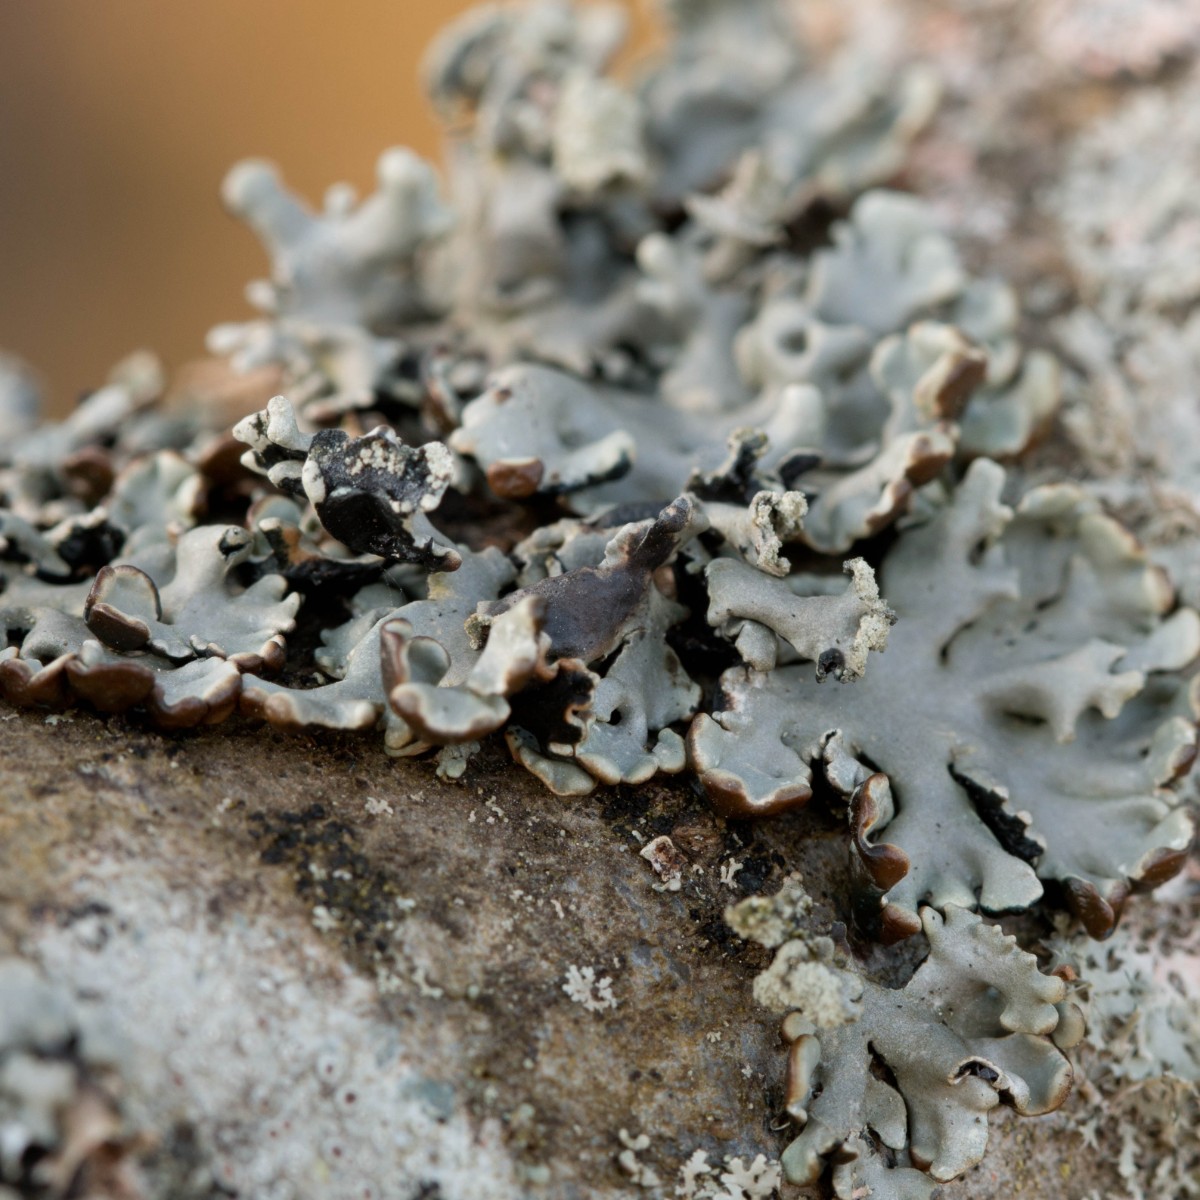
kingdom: Fungi
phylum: Ascomycota
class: Lecanoromycetes
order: Lecanorales
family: Parmeliaceae
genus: Hypogymnia
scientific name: Hypogymnia physodes
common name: almindelig kvistlav
